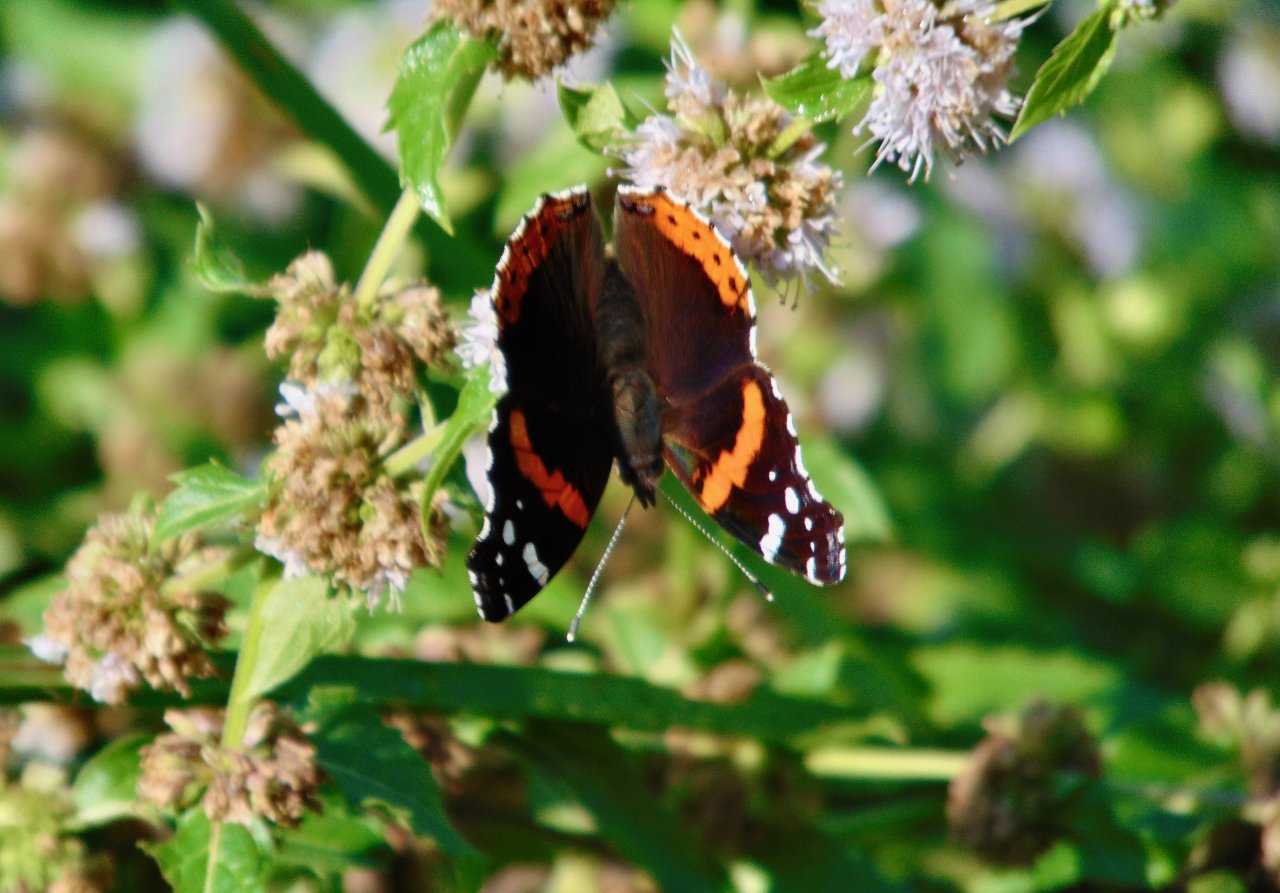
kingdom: Animalia
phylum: Arthropoda
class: Insecta
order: Lepidoptera
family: Nymphalidae
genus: Vanessa
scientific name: Vanessa atalanta
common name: Red Admiral
